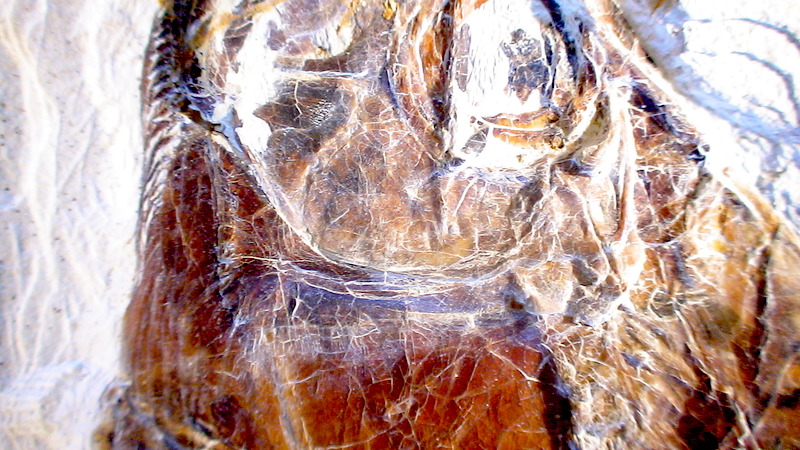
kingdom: Animalia
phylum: Chordata
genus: Thrissops
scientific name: Thrissops formosus
